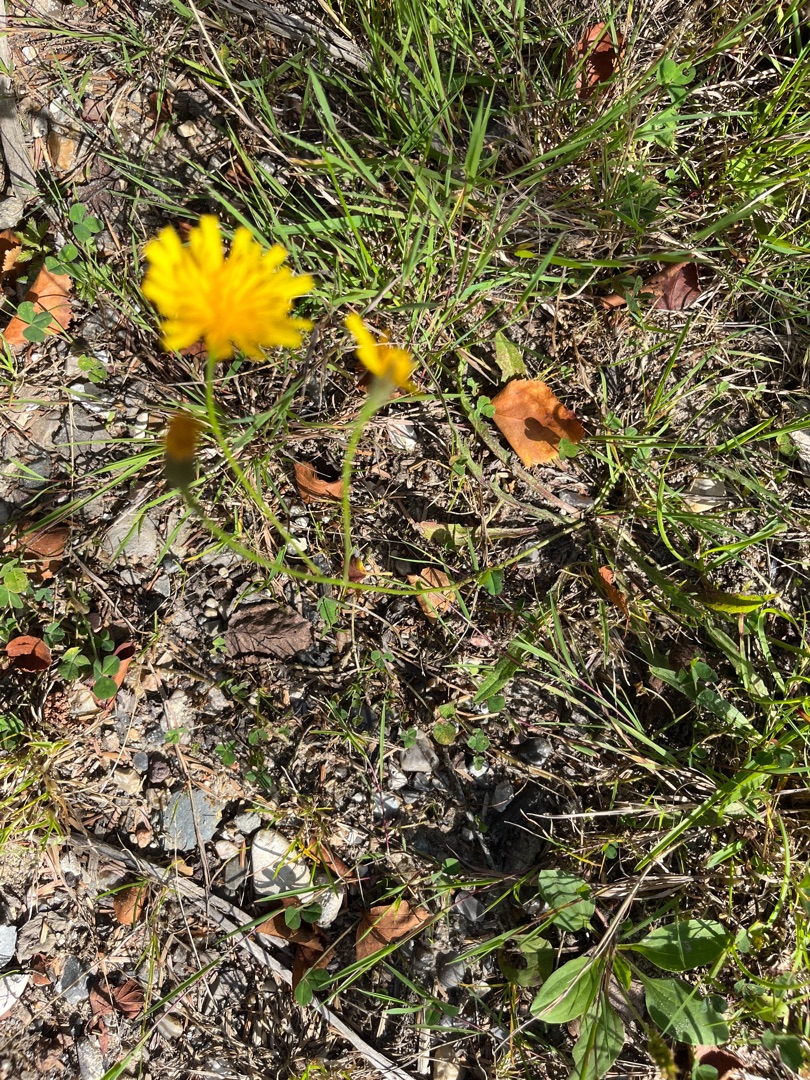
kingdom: Plantae
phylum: Tracheophyta
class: Magnoliopsida
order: Asterales
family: Asteraceae
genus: Scorzoneroides
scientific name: Scorzoneroides autumnalis
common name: Høst-borst
